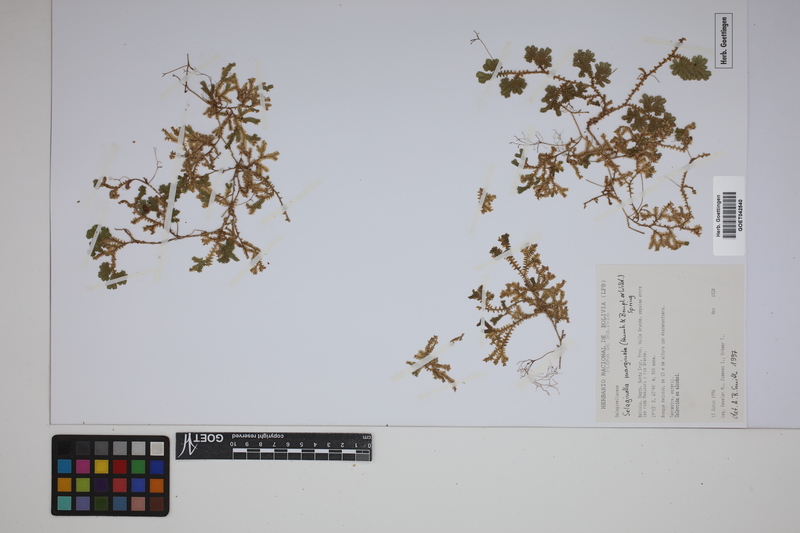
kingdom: Plantae
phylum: Tracheophyta
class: Lycopodiopsida
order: Selaginellales
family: Selaginellaceae
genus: Selaginella
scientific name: Selaginella marginata
